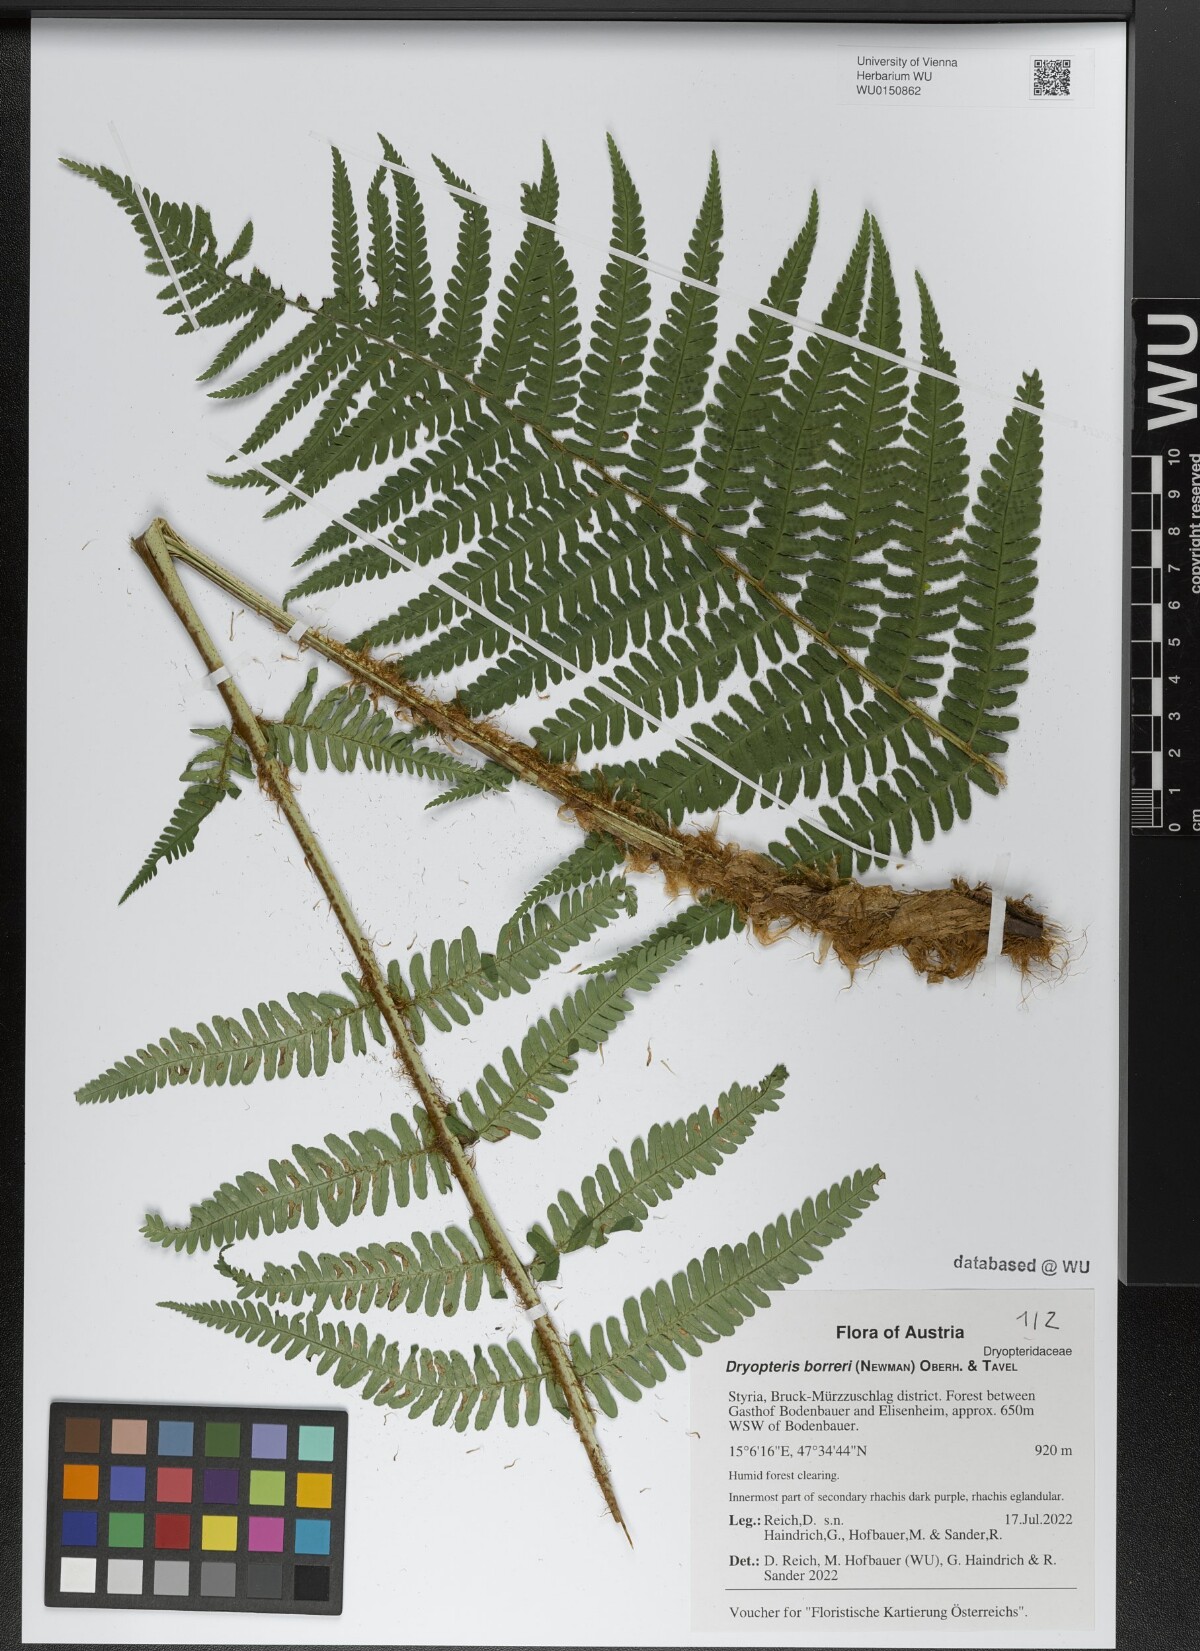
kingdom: Plantae
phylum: Tracheophyta
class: Polypodiopsida
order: Polypodiales
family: Dryopteridaceae
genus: Dryopteris
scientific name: Dryopteris borreri
